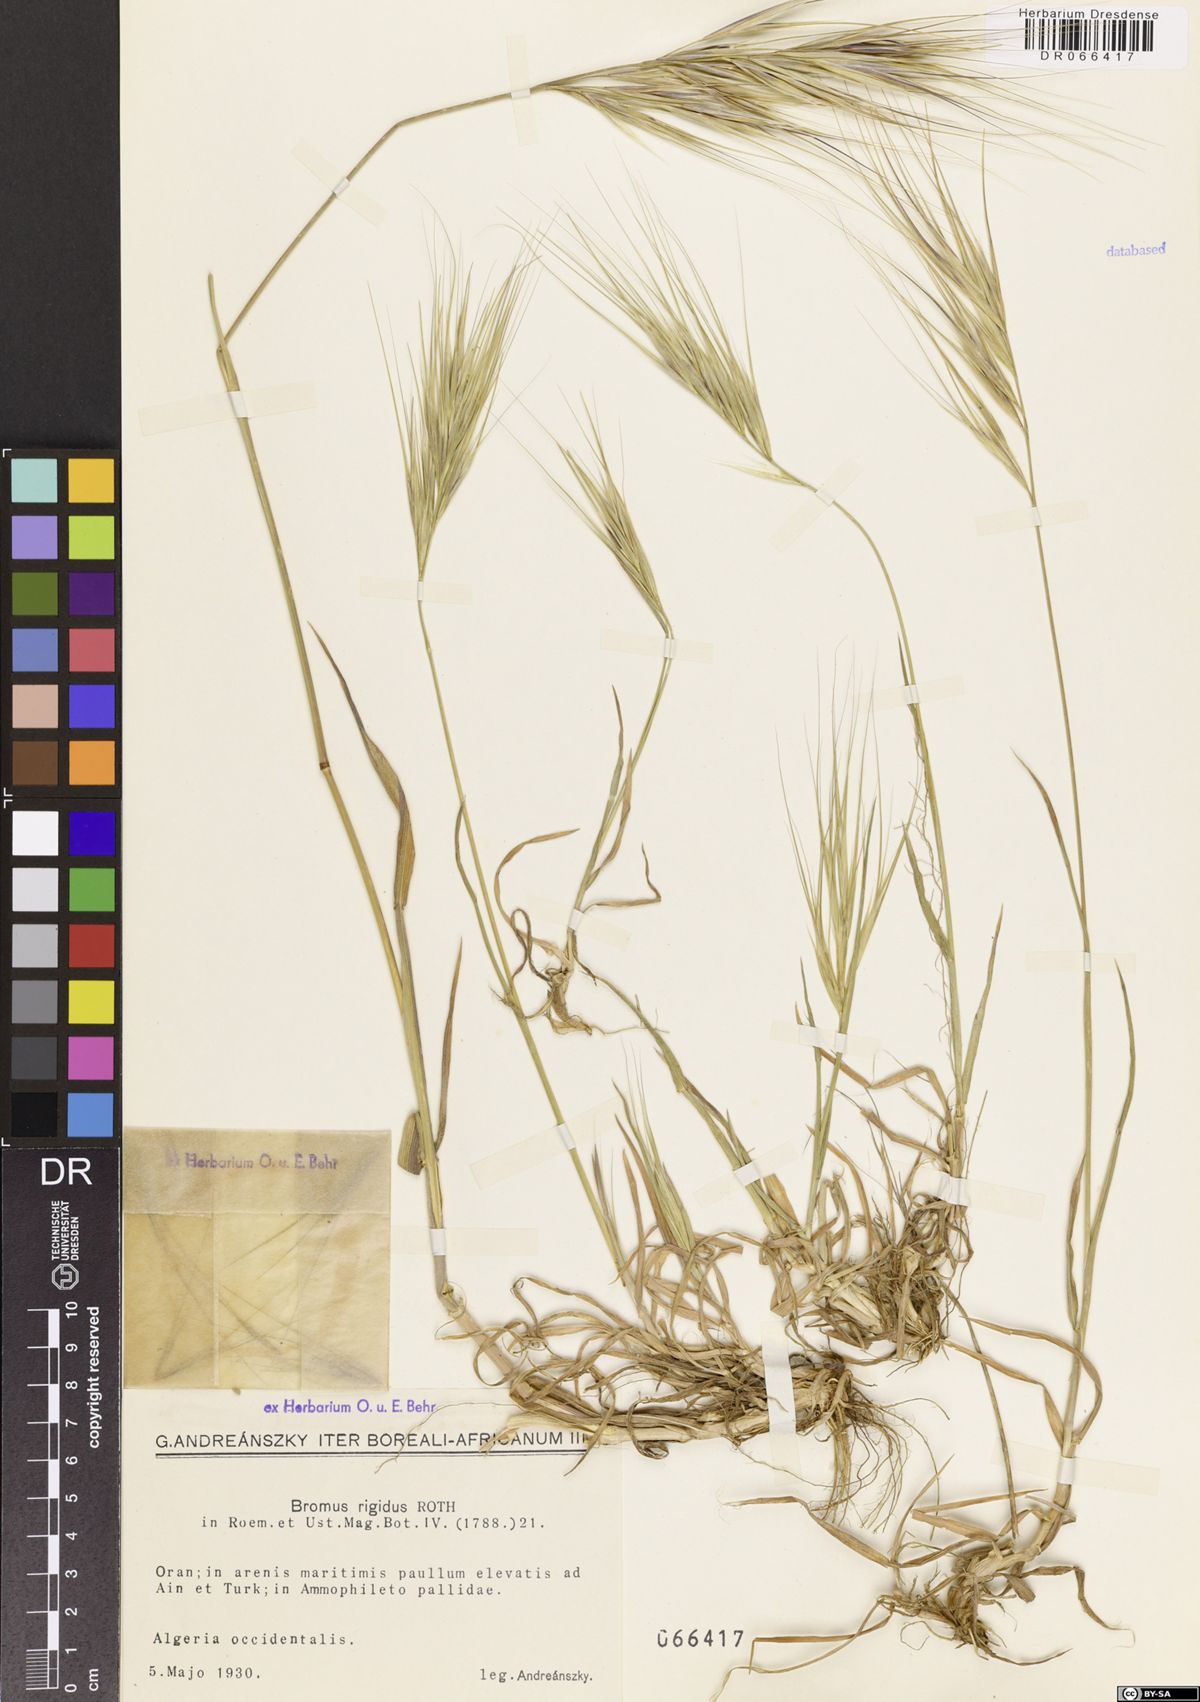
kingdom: Plantae
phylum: Tracheophyta
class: Liliopsida
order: Poales
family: Poaceae
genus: Bromus
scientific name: Bromus rigidus
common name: Ripgut brome
